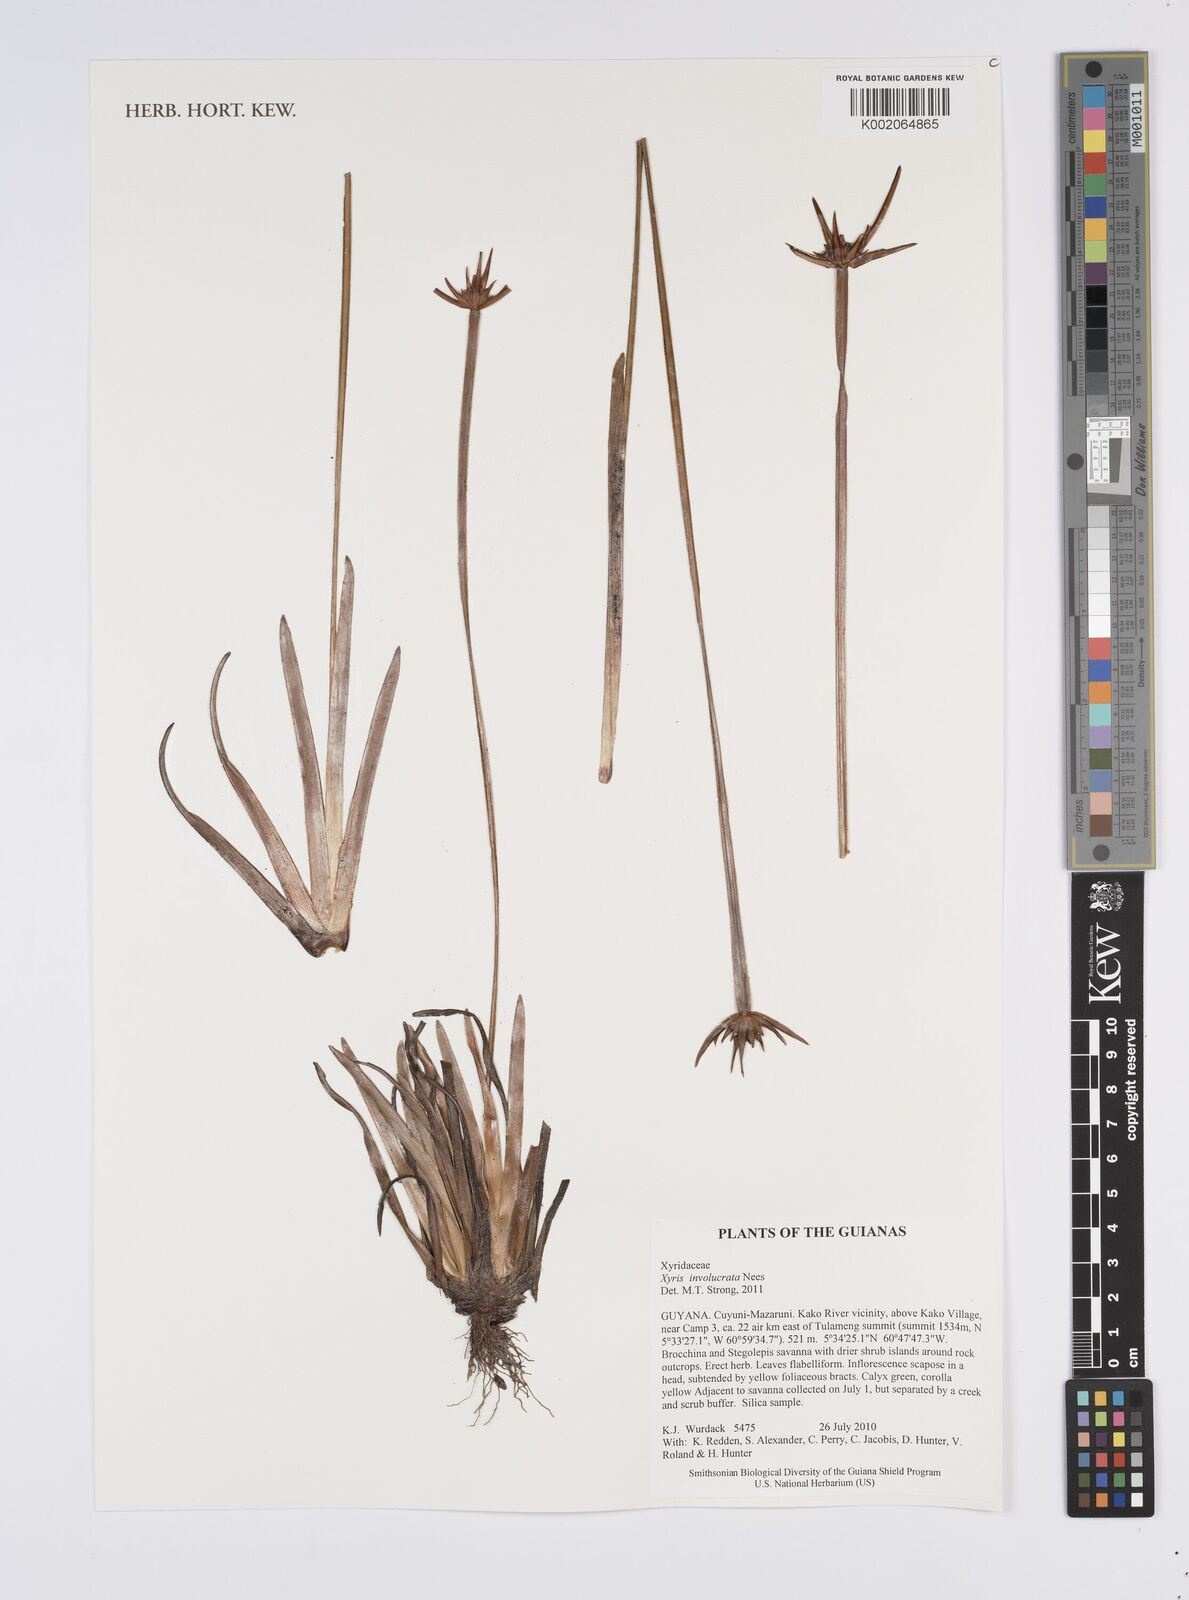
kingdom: Plantae
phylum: Tracheophyta
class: Liliopsida
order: Poales
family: Xyridaceae
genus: Xyris
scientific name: Xyris involucrata
